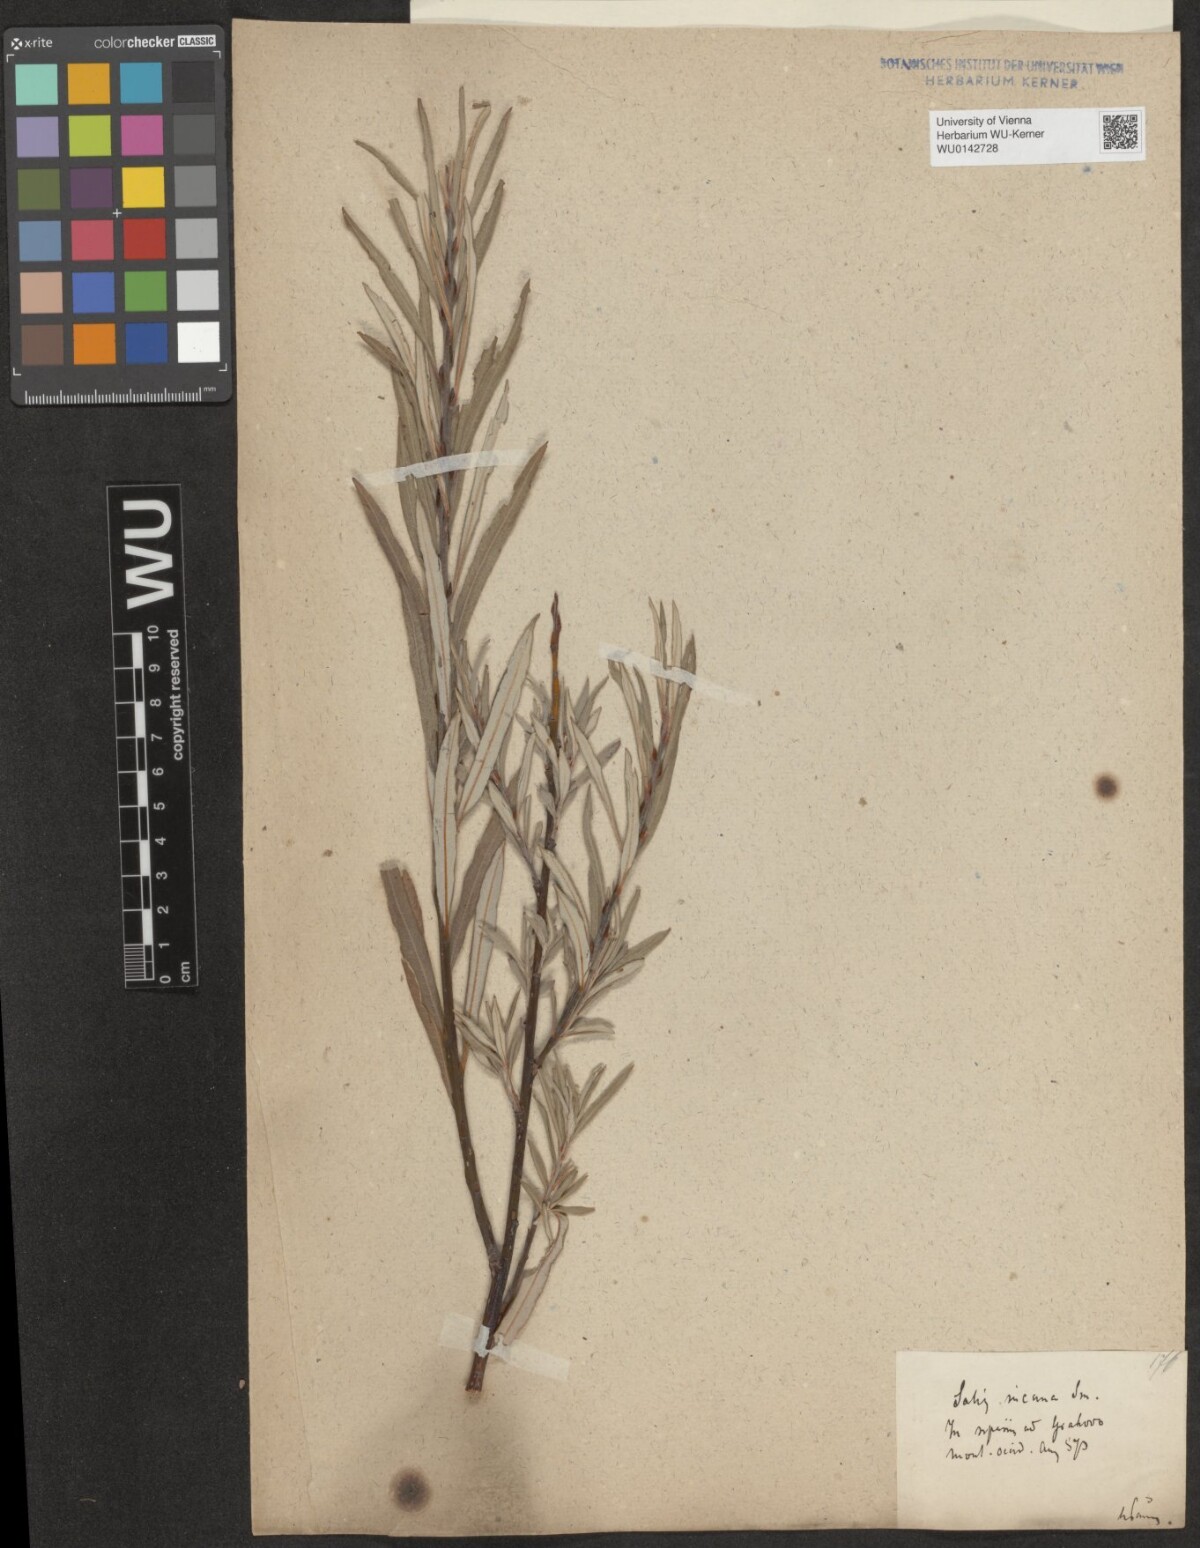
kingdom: Plantae
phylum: Tracheophyta
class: Magnoliopsida
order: Malpighiales
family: Salicaceae
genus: Salix
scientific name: Salix eleagnos
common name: Elaeagnus willow
